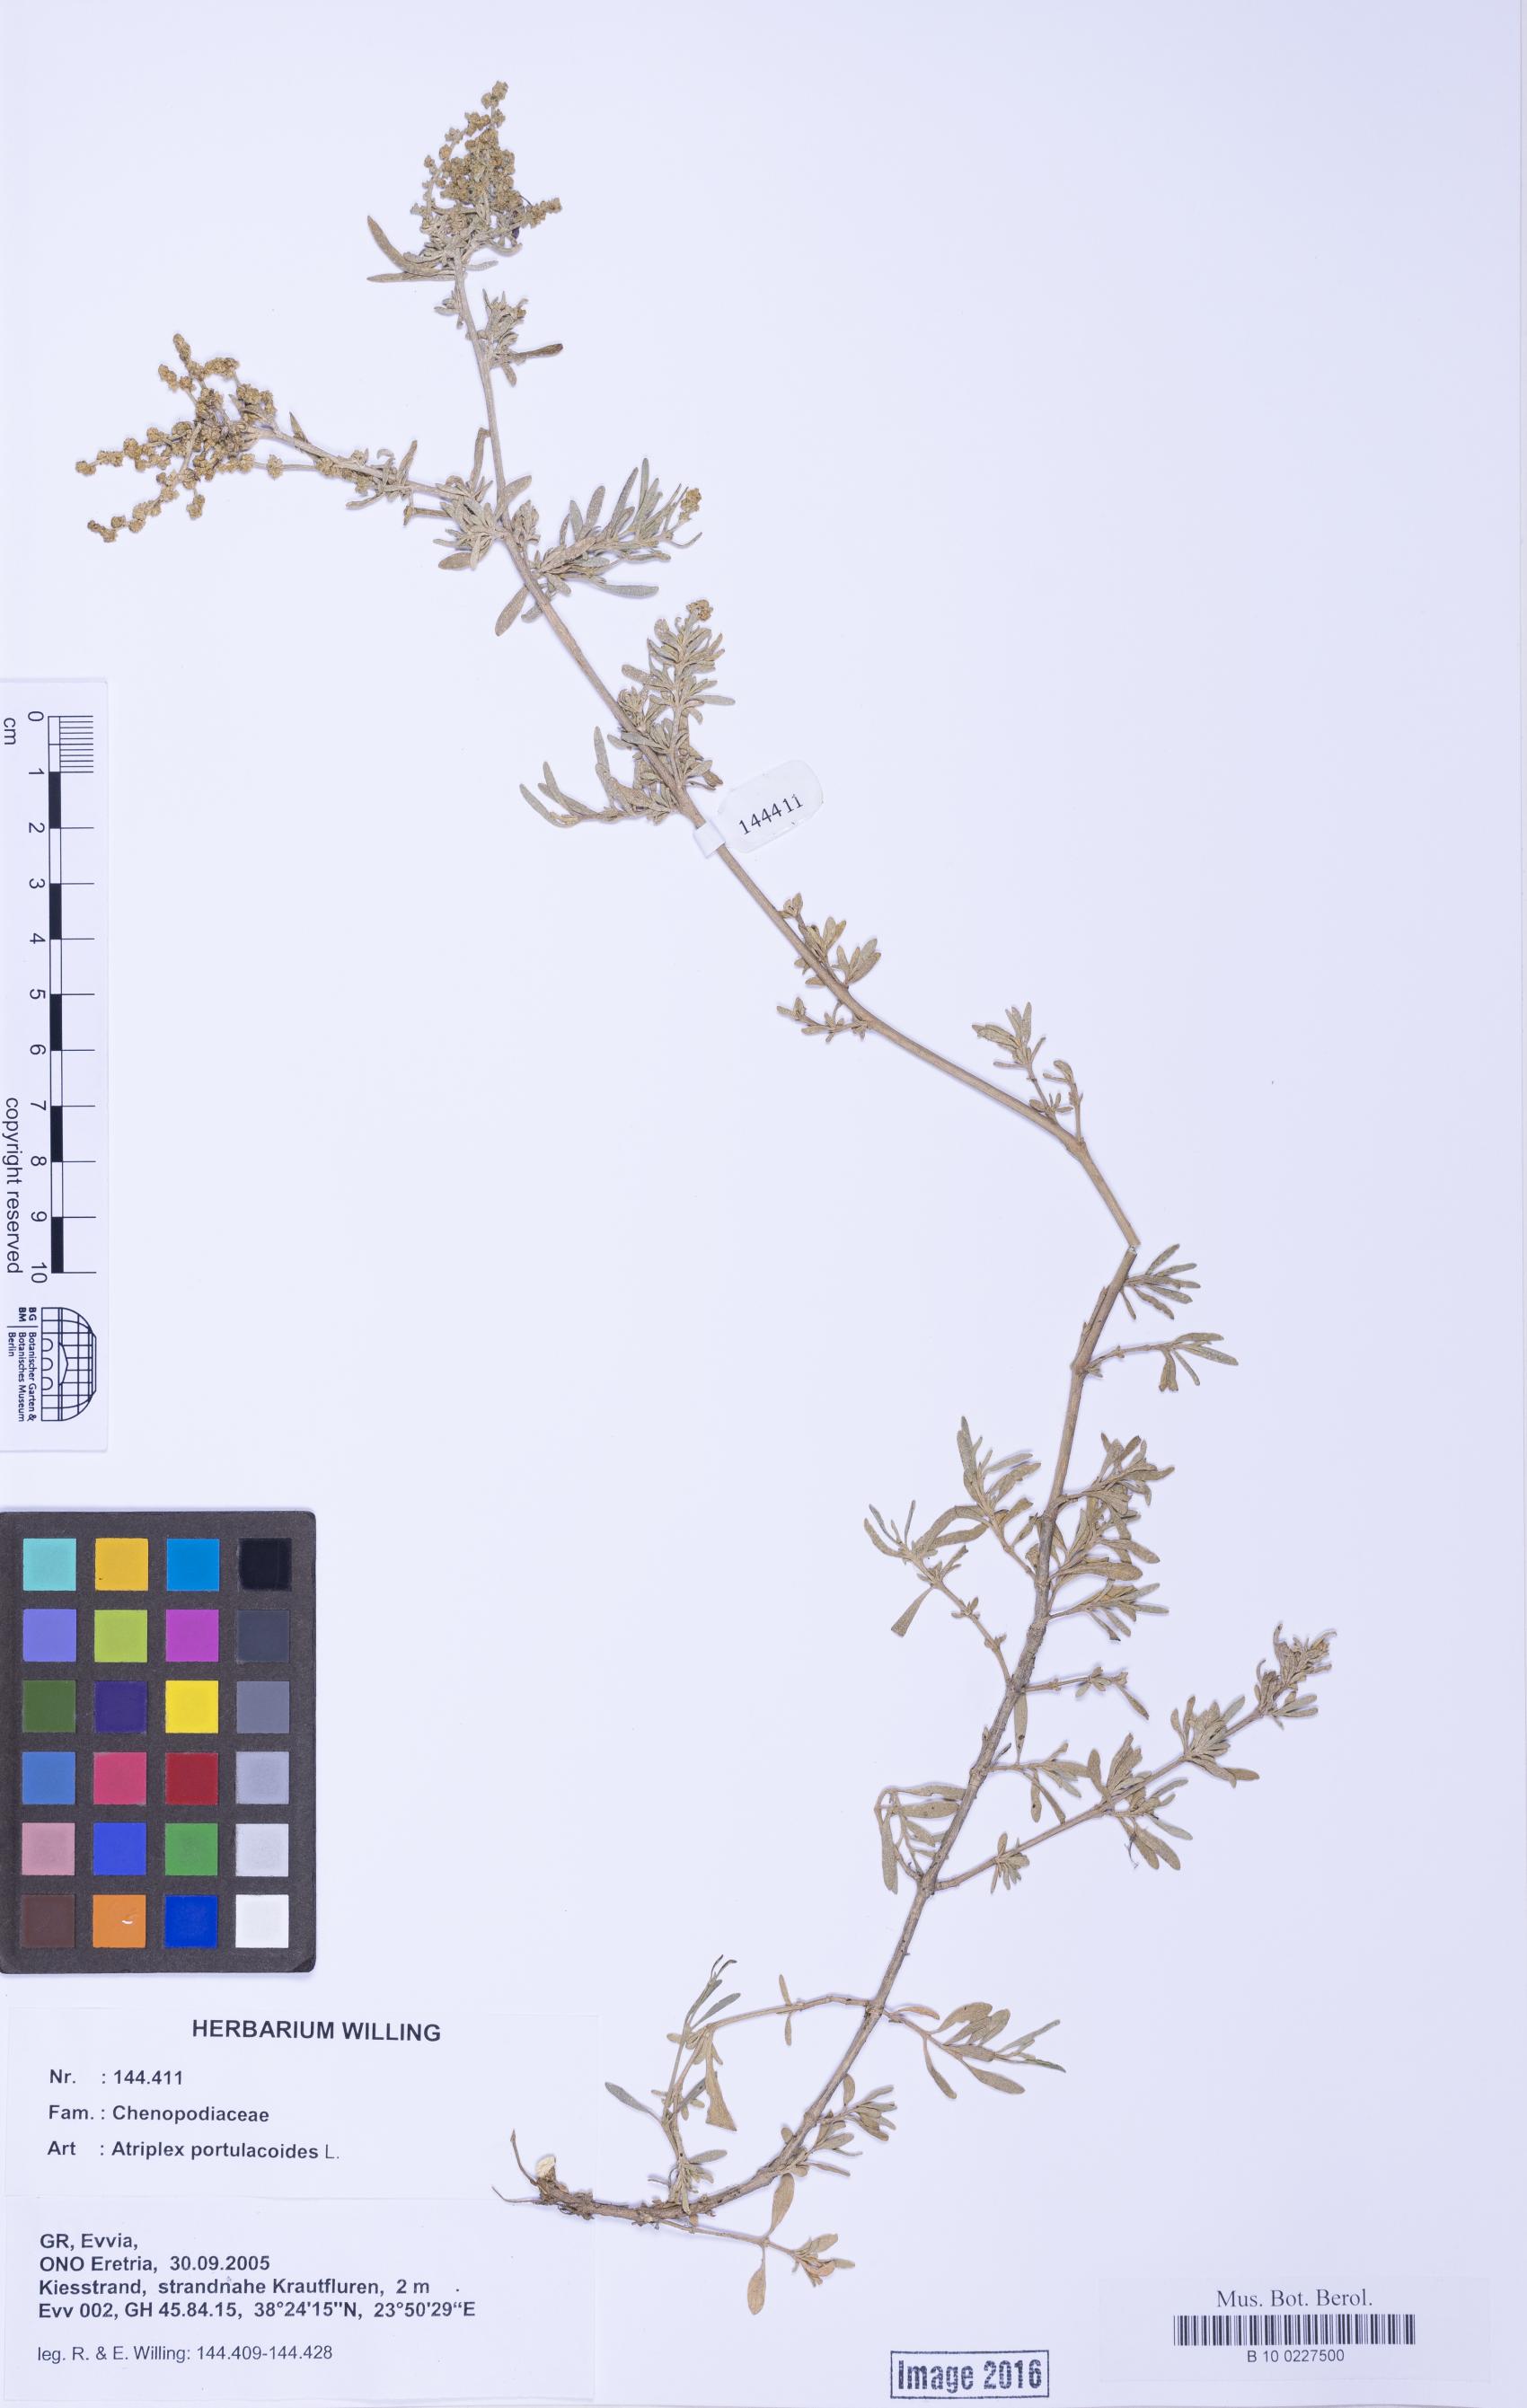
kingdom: Plantae
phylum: Tracheophyta
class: Magnoliopsida
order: Caryophyllales
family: Amaranthaceae
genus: Halimione
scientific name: Halimione portulacoides
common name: Sea-purslane
